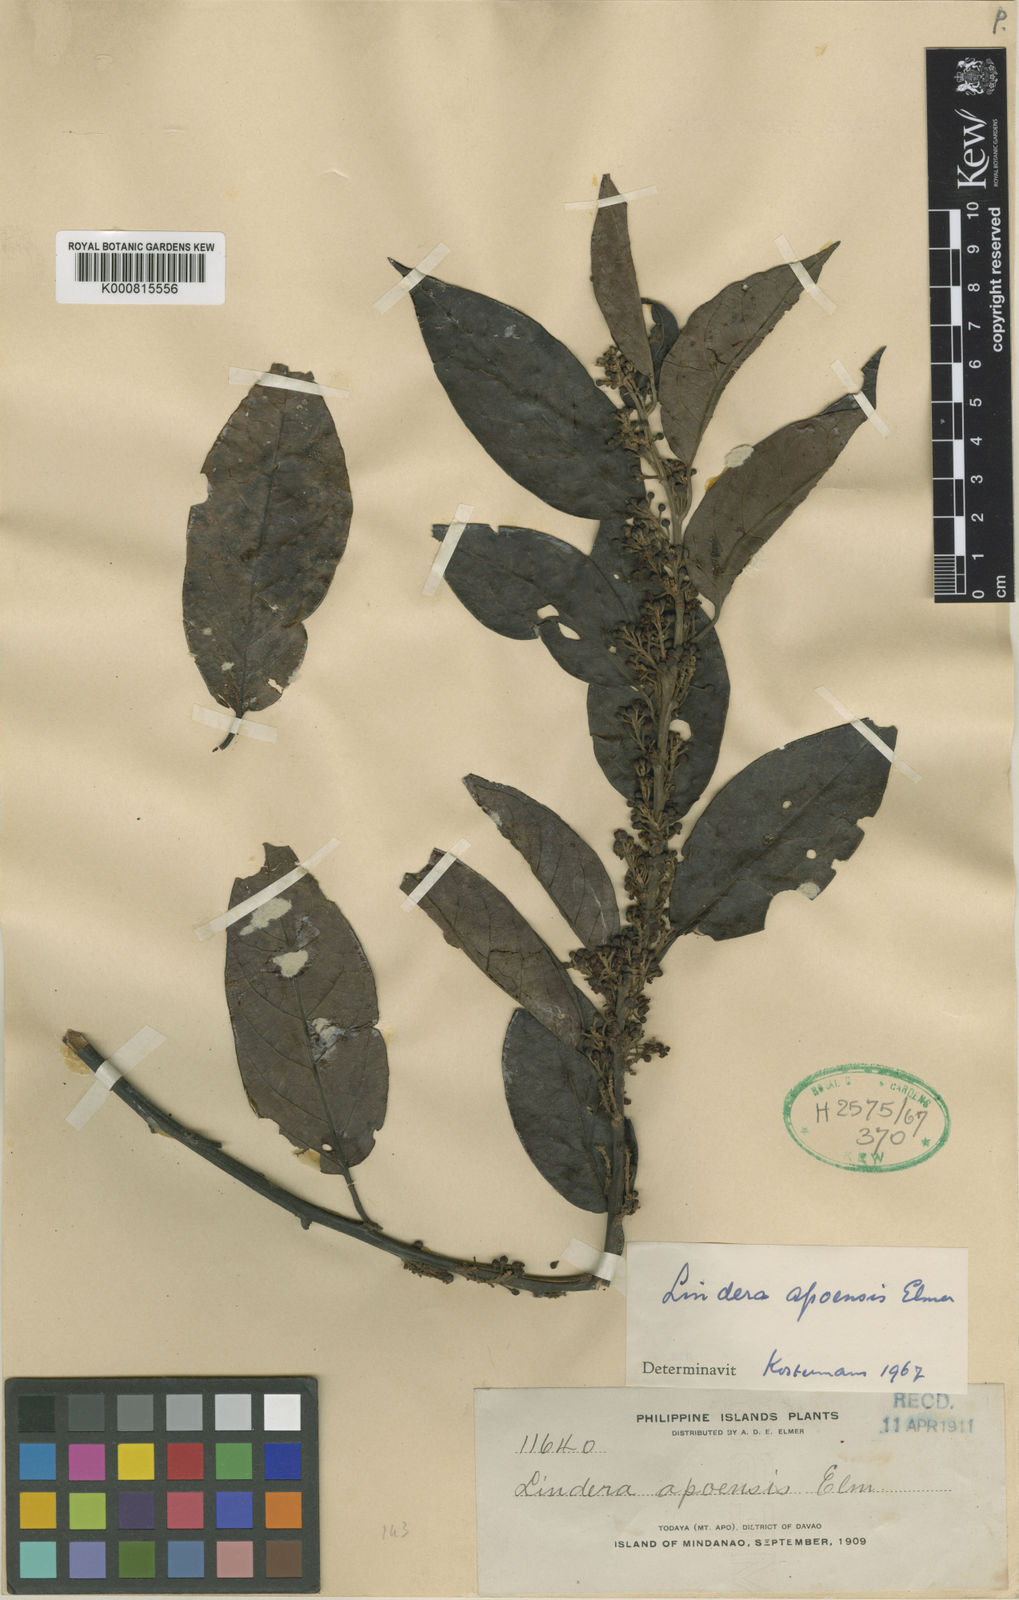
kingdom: Plantae
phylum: Tracheophyta
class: Magnoliopsida
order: Laurales
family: Lauraceae
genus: Lindera
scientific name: Lindera apoensis
